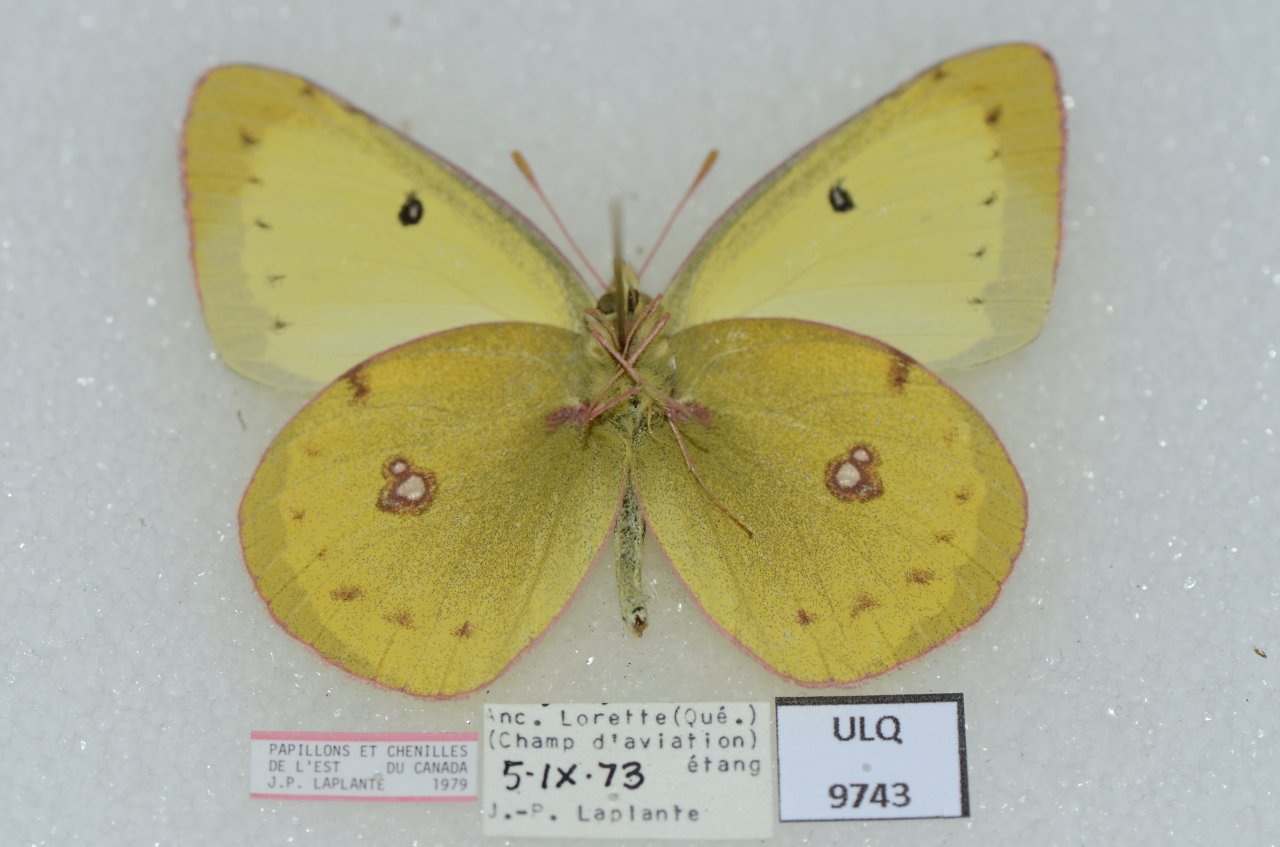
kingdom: Animalia
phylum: Arthropoda
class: Insecta
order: Lepidoptera
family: Pieridae
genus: Colias
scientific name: Colias philodice
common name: Clouded Sulphur
